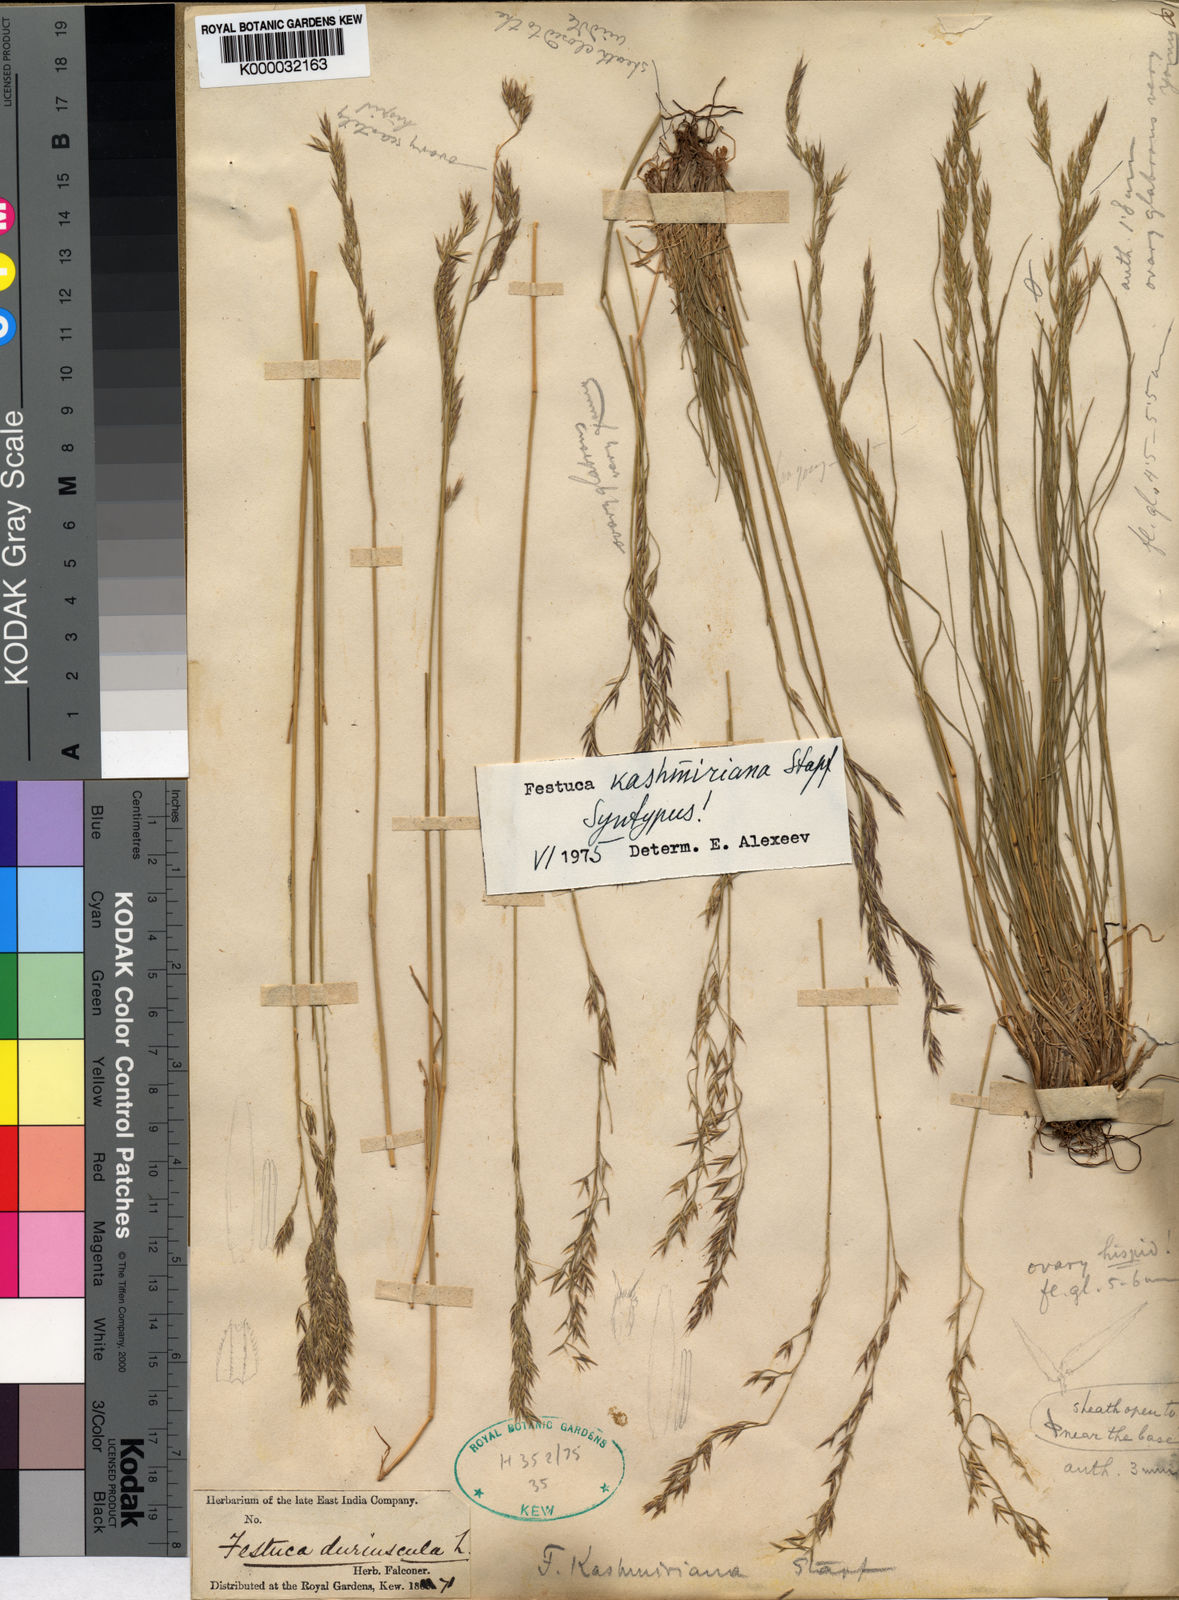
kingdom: Plantae
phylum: Tracheophyta
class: Liliopsida
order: Poales
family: Poaceae
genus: Festuca
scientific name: Festuca kashmiriana
